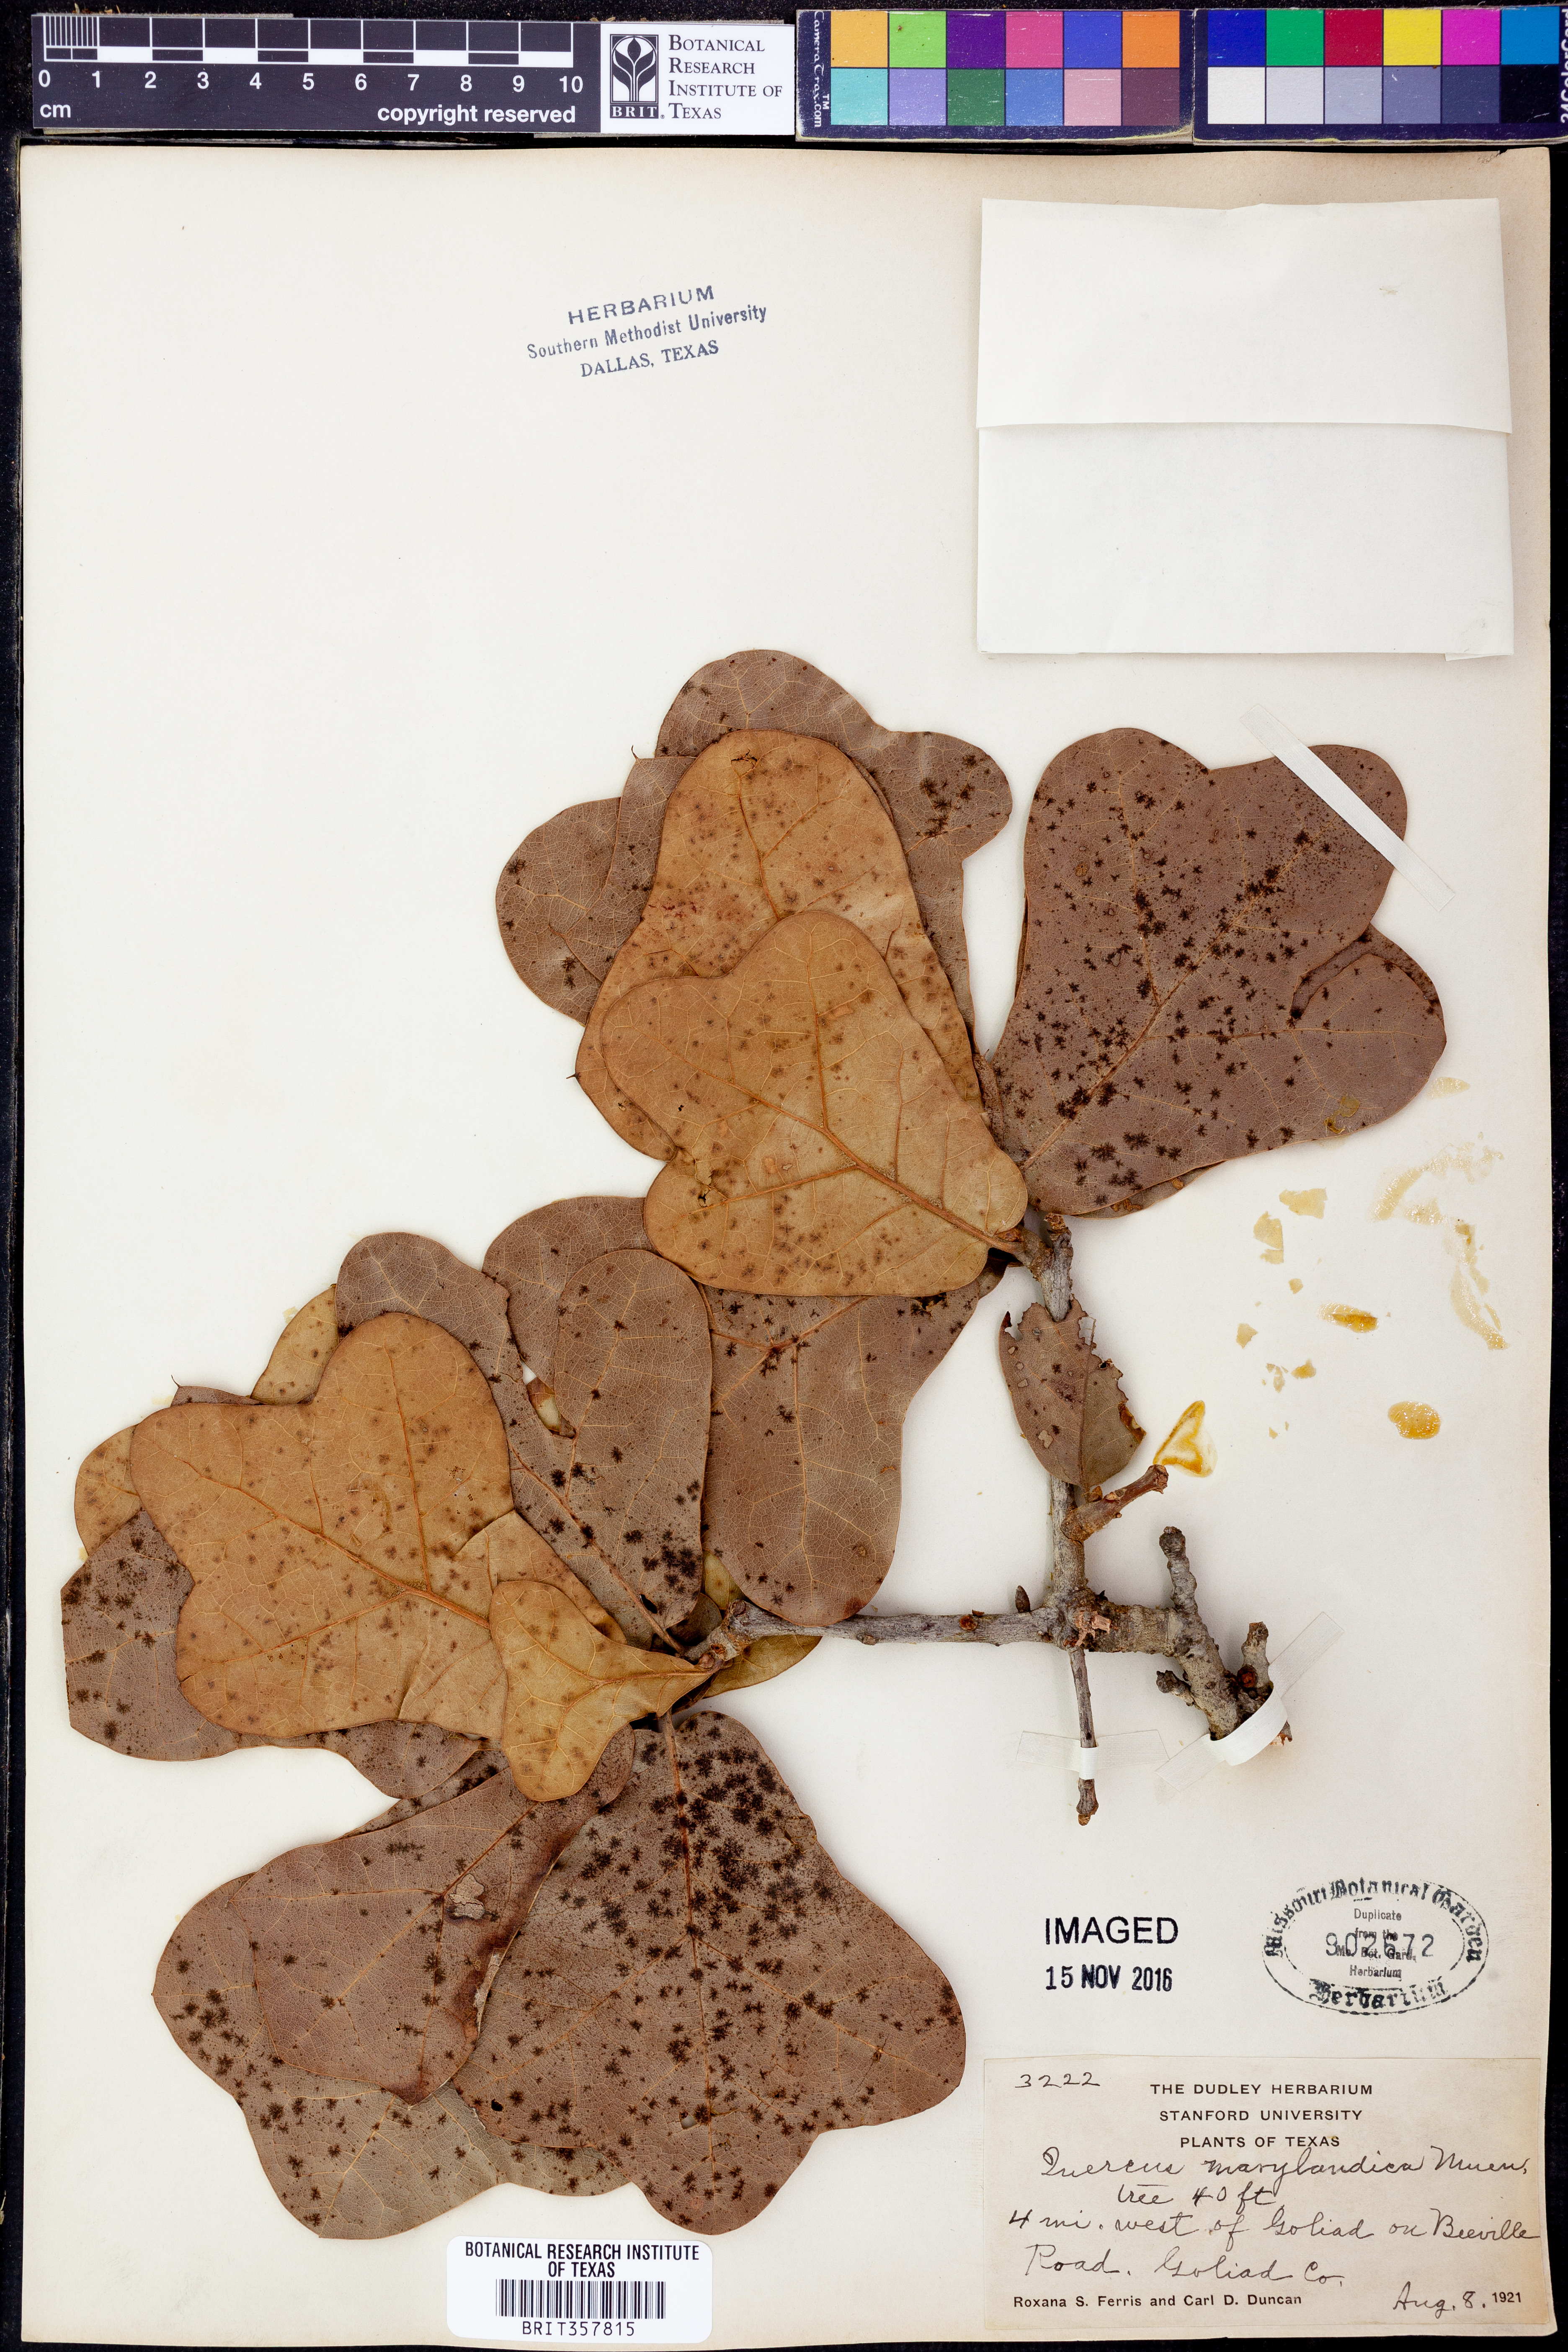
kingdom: Plantae
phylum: Tracheophyta
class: Magnoliopsida
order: Fagales
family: Fagaceae
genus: Quercus
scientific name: Quercus nigra
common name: Water oak
